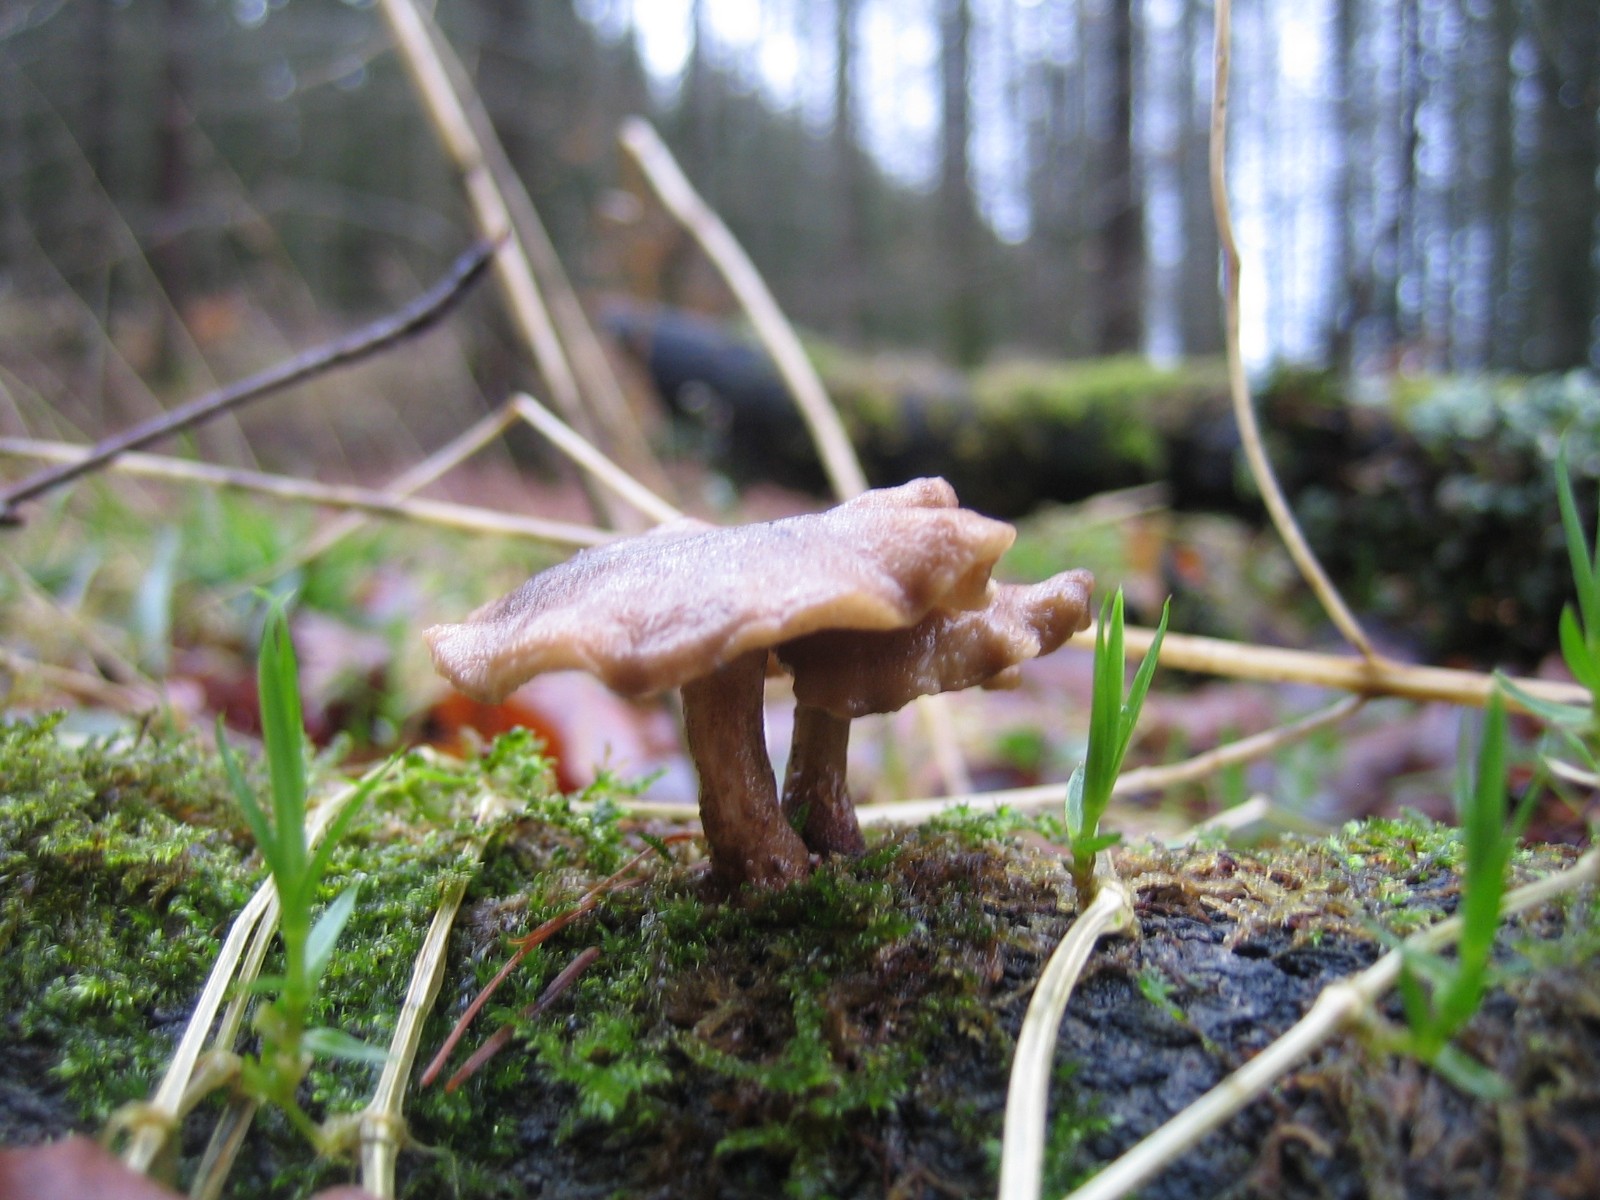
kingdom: Fungi
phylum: Basidiomycota
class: Agaricomycetes
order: Polyporales
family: Polyporaceae
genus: Lentinus
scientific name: Lentinus brumalis
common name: vinter-stilkporesvamp
